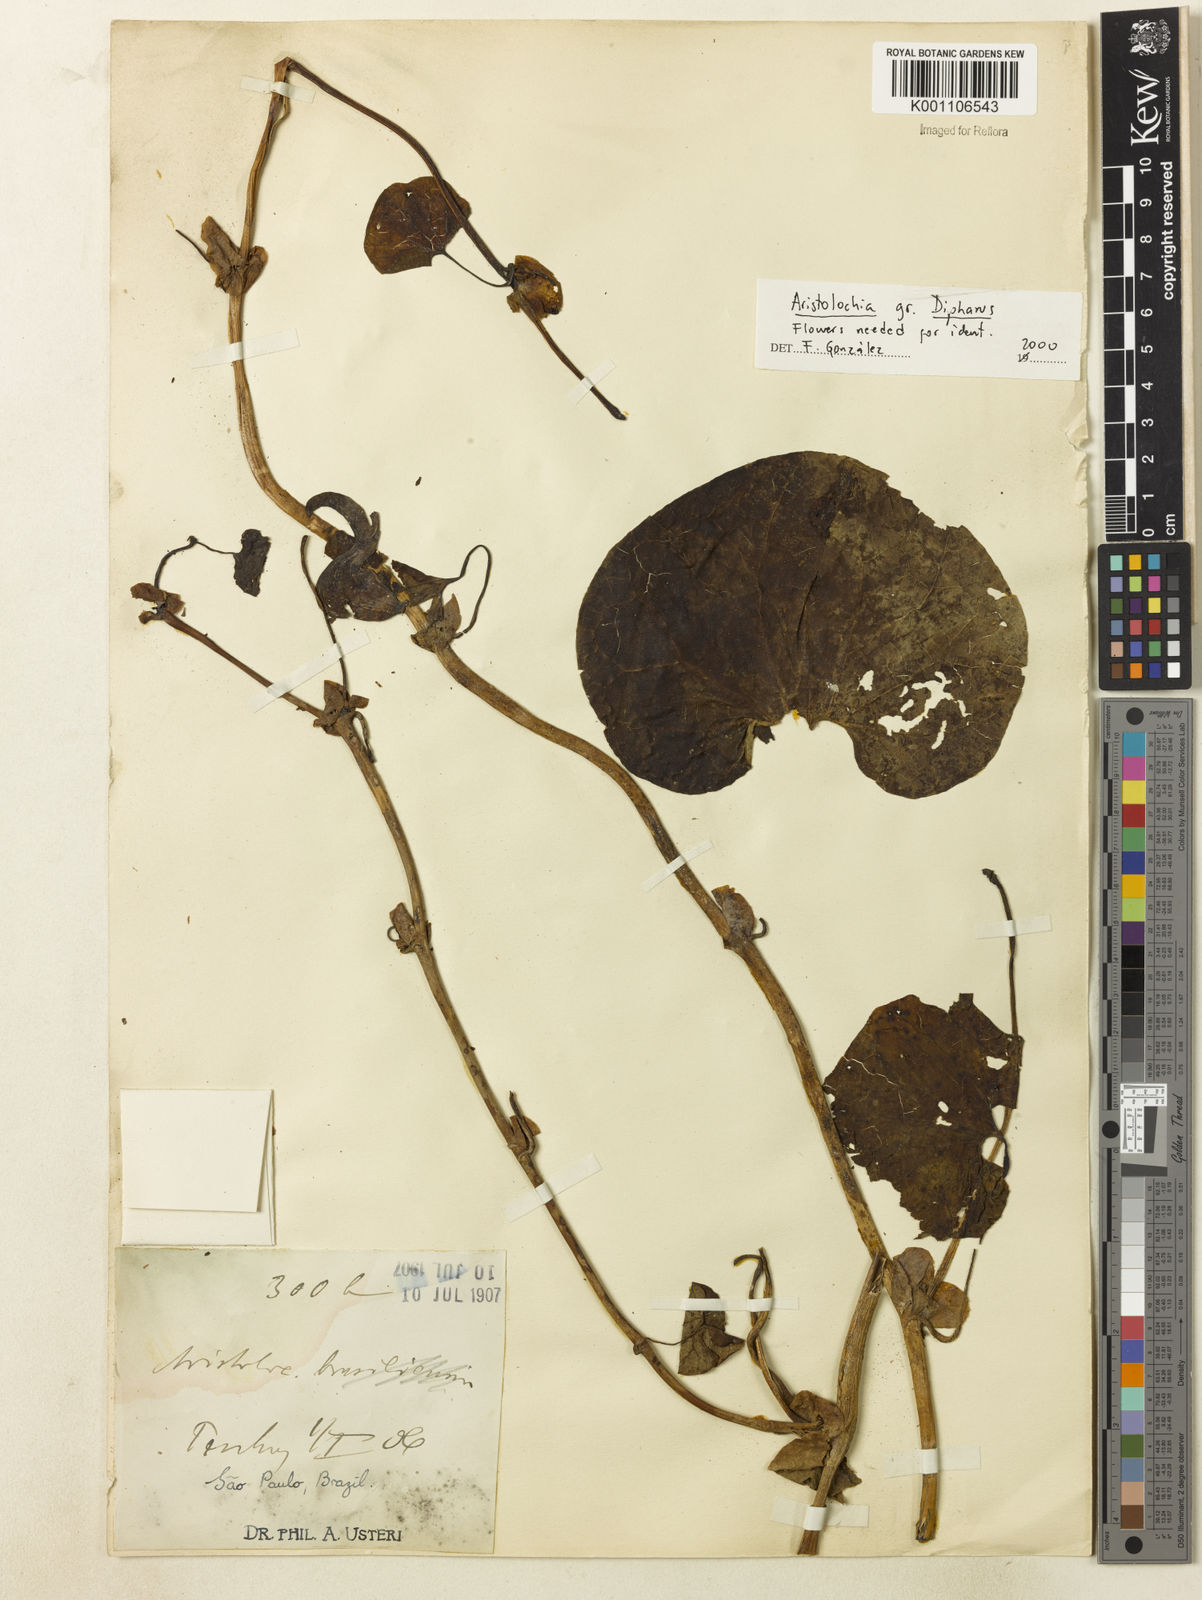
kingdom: Plantae
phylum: Tracheophyta
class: Magnoliopsida
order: Piperales
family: Aristolochiaceae
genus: Aristolochia
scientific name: Aristolochia
